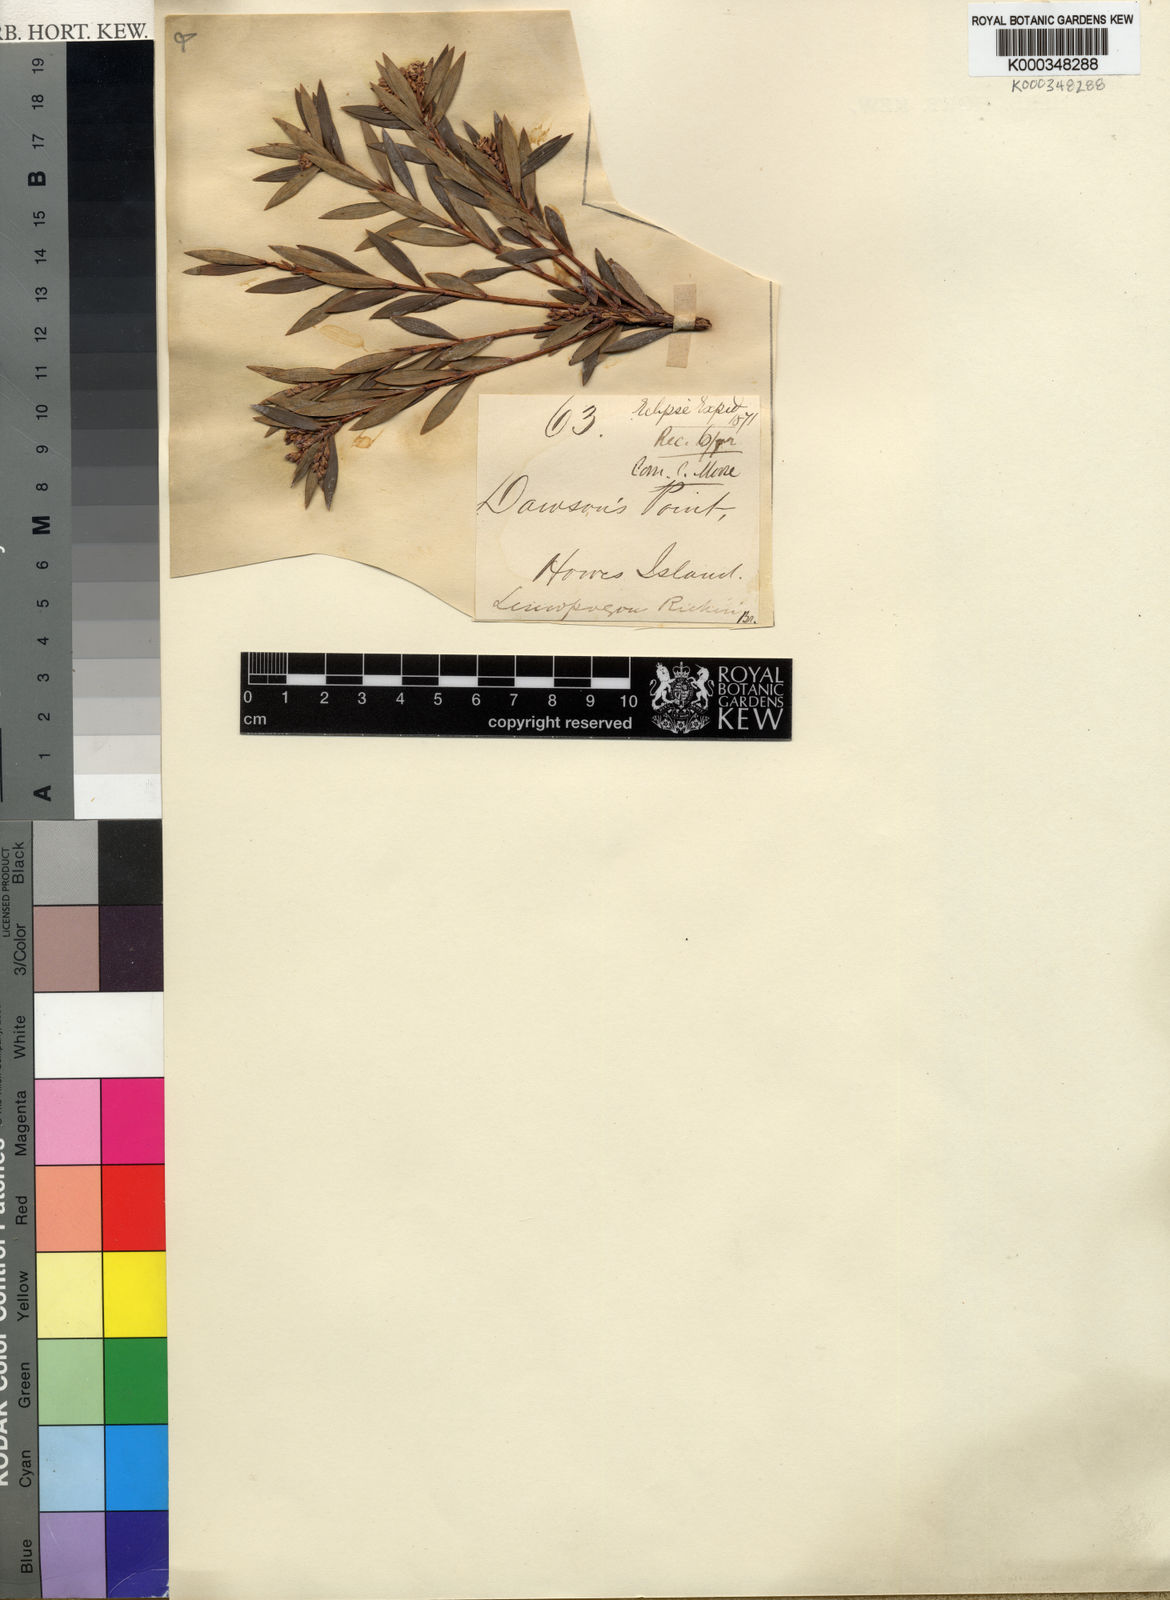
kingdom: Plantae
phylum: Tracheophyta
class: Magnoliopsida
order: Ericales
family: Ericaceae
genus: Leptecophylla
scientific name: Leptecophylla parvifolia
